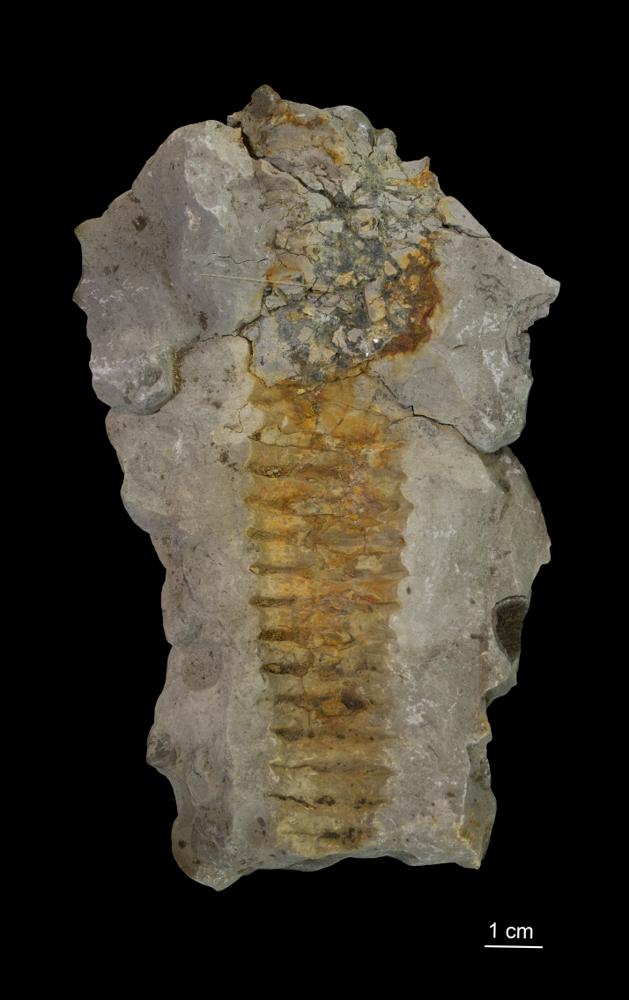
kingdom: Plantae
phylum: Tracheophyta
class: Liliopsida
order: Asparagales
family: Orchidaceae
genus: Orthoceras
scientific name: Orthoceras annulata
